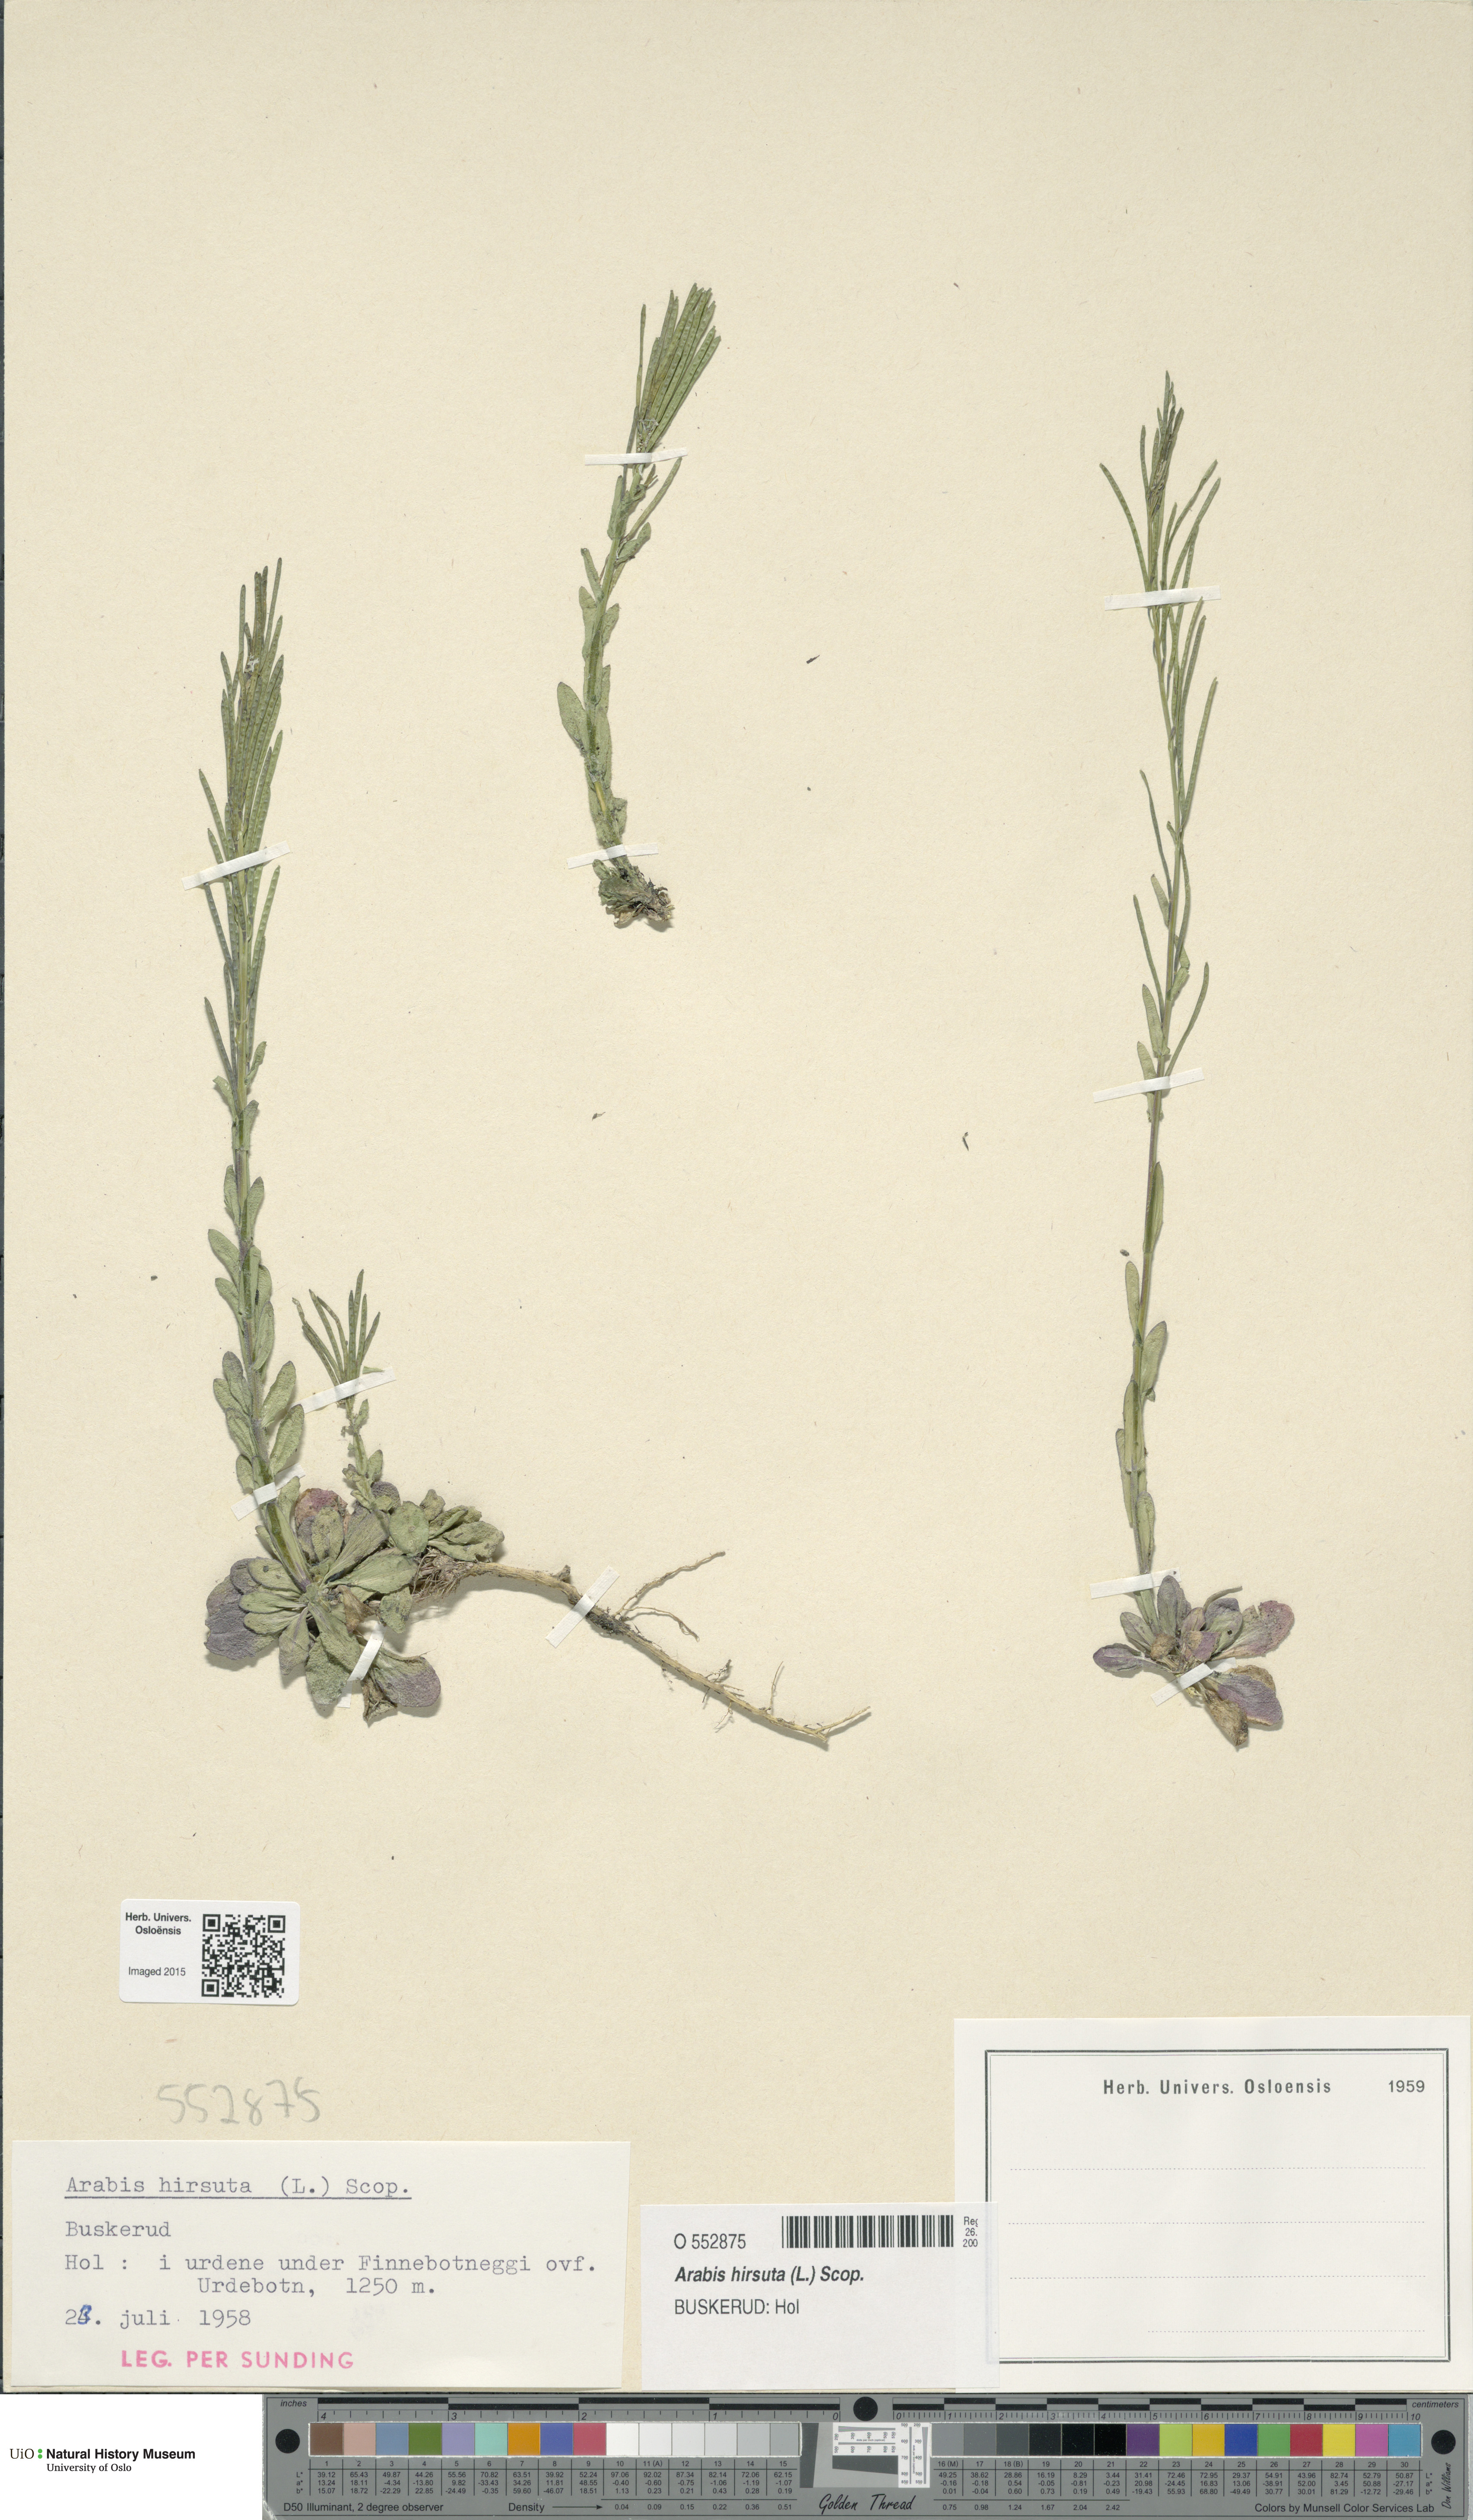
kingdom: Plantae
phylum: Tracheophyta
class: Magnoliopsida
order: Brassicales
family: Brassicaceae
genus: Arabis
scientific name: Arabis hirsuta
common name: Hairy rock-cress
